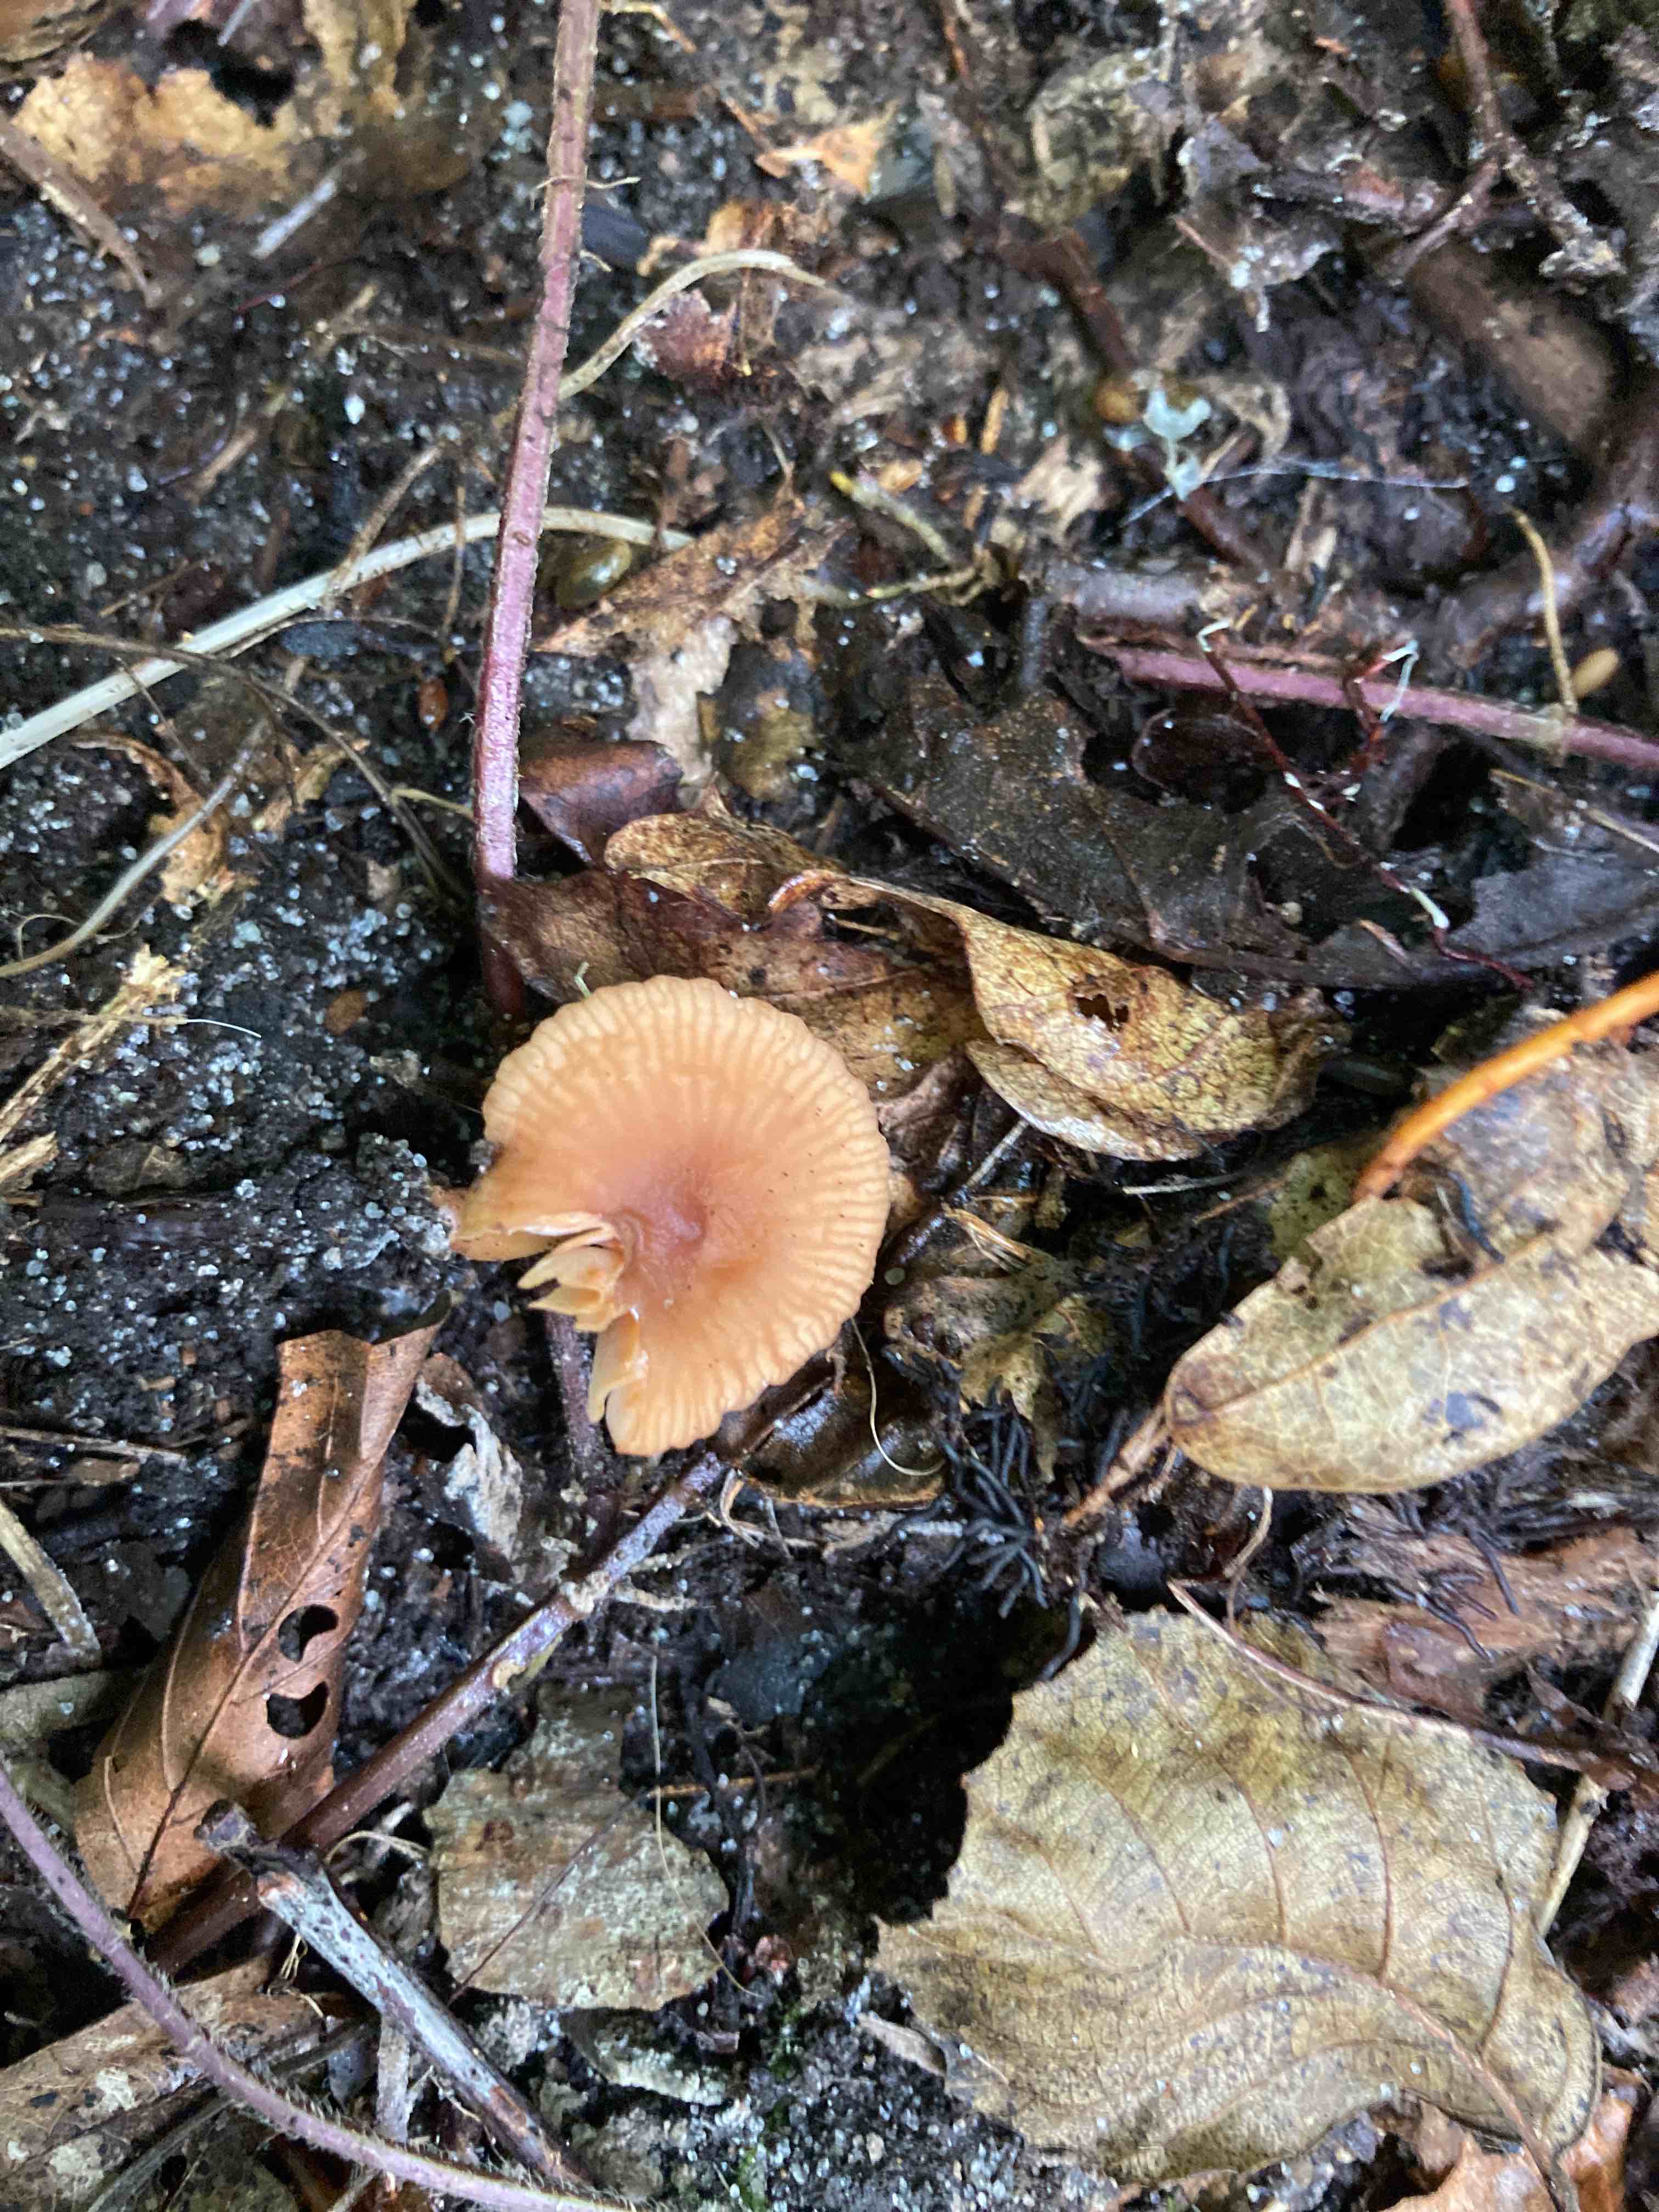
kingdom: Fungi
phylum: Basidiomycota
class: Agaricomycetes
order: Russulales
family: Russulaceae
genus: Lactarius
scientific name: Lactarius obscuratus
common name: elle-mælkehat
